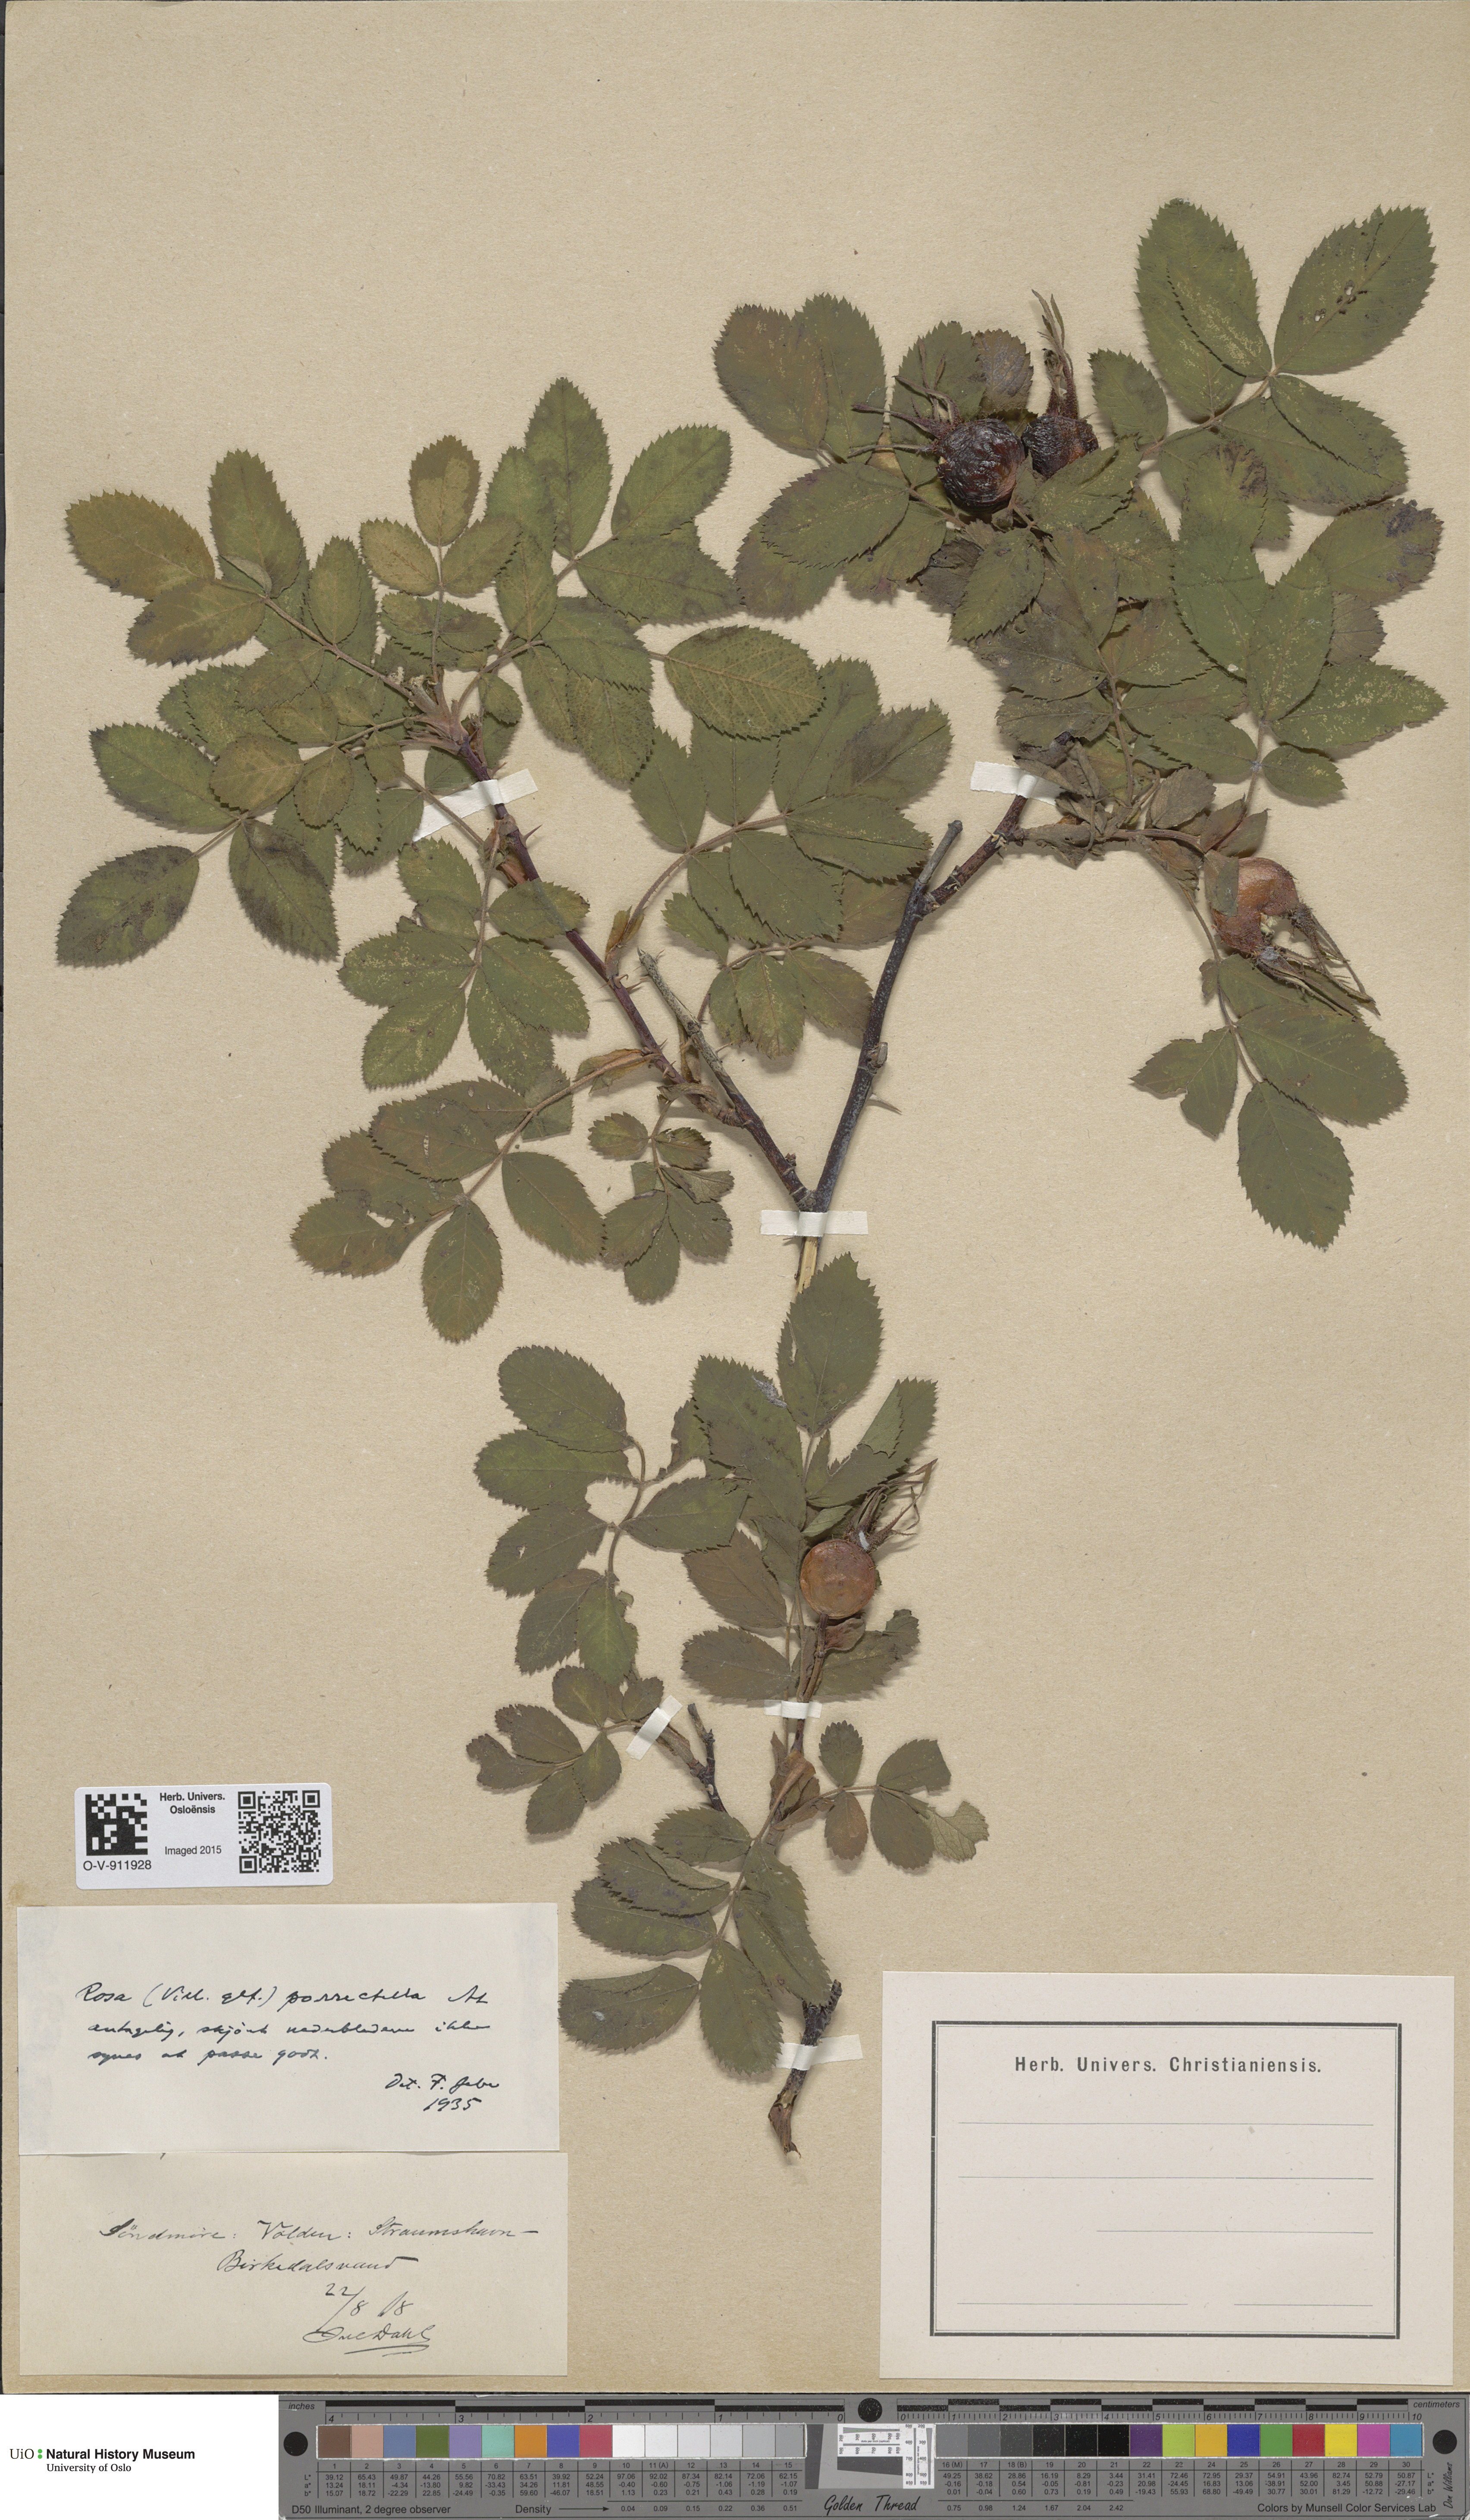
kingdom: Plantae
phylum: Tracheophyta
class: Magnoliopsida
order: Rosales
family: Rosaceae
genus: Rosa
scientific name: Rosa mollis
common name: Rose
